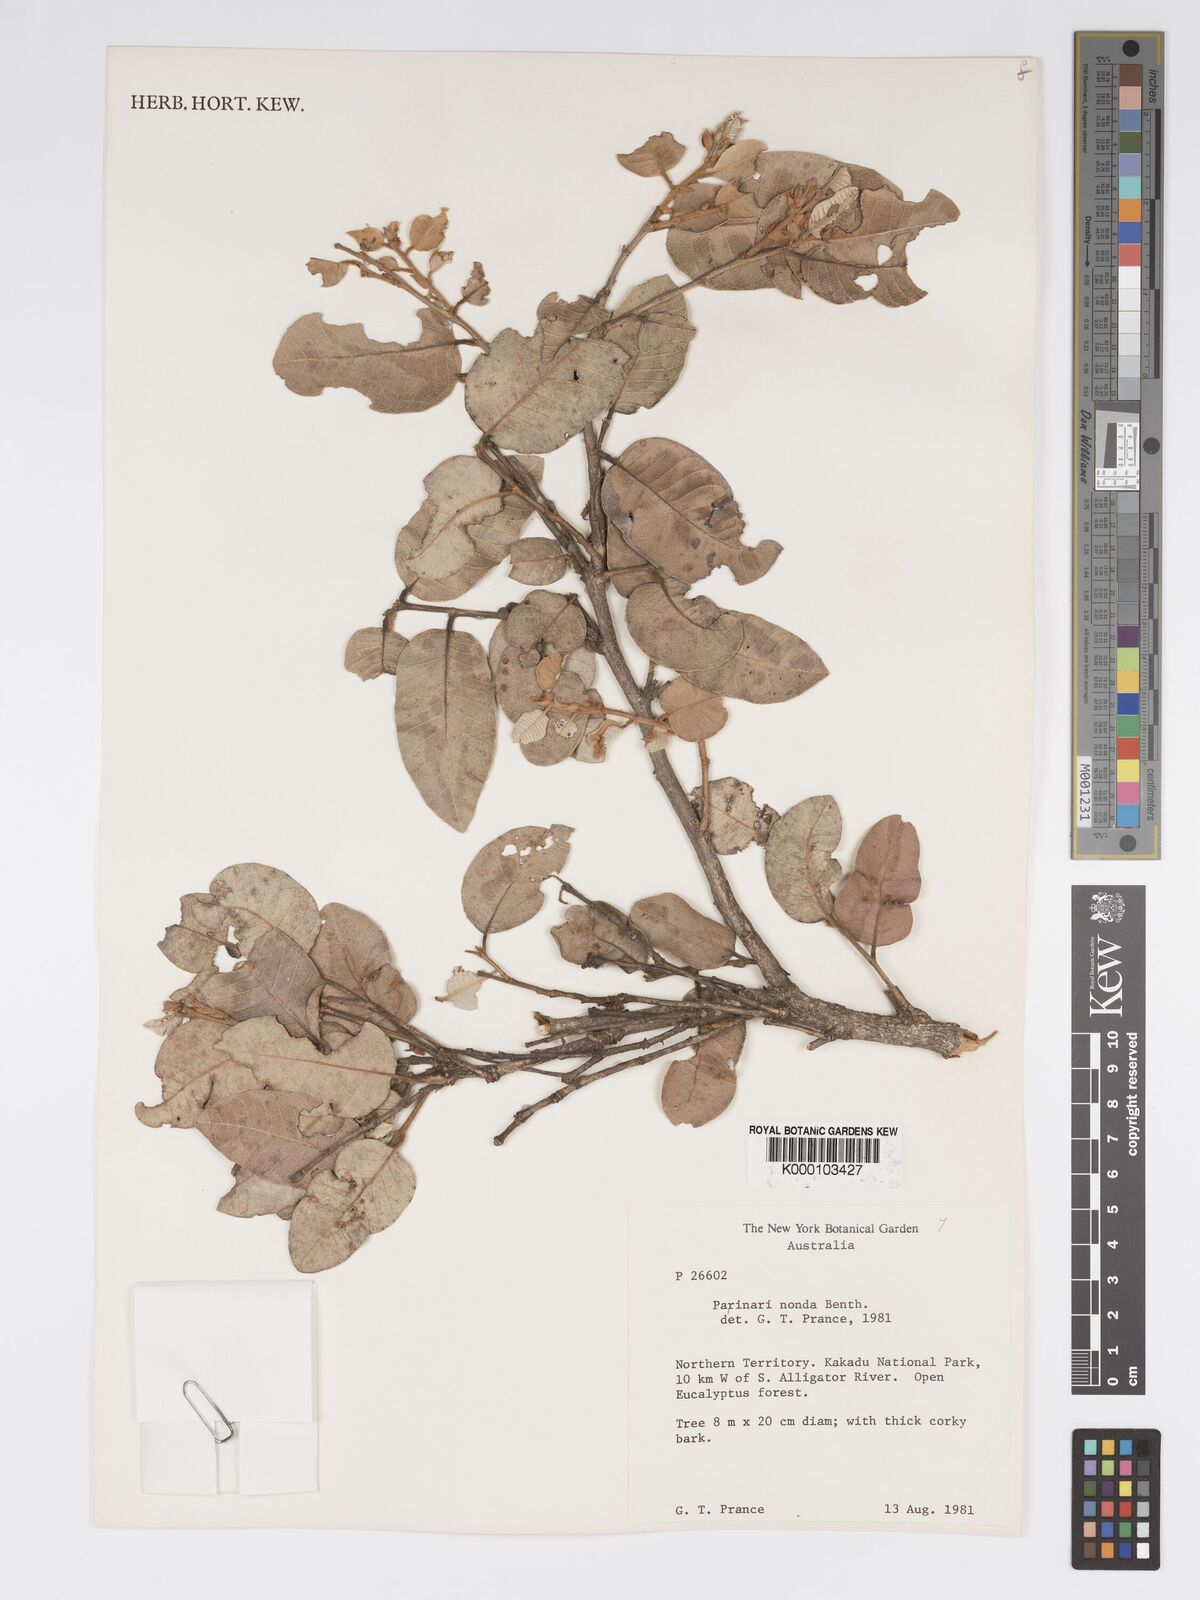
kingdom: Plantae
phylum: Tracheophyta
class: Magnoliopsida
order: Malpighiales
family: Chrysobalanaceae
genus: Parinari
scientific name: Parinari nonda
